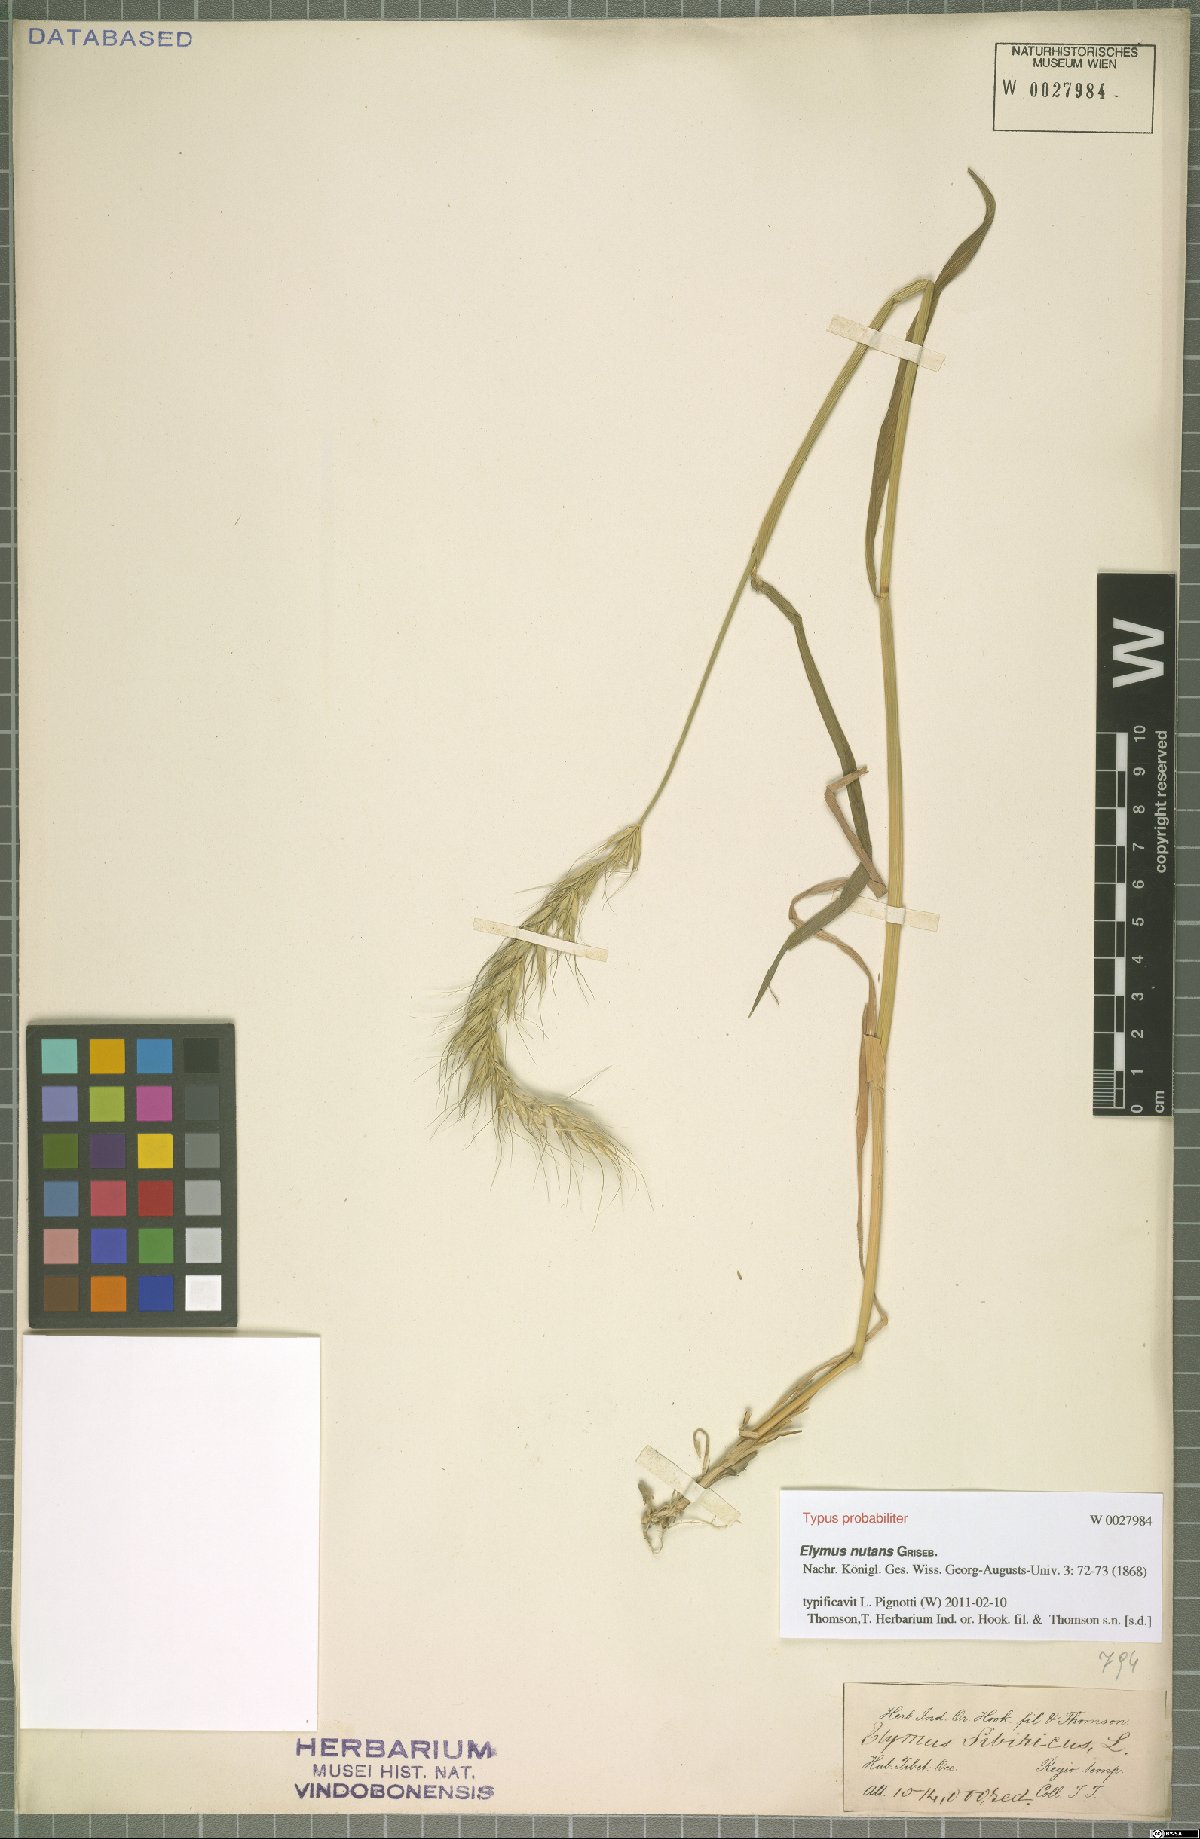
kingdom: Plantae
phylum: Tracheophyta
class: Liliopsida
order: Poales
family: Poaceae
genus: Elymus
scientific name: Elymus nutans
